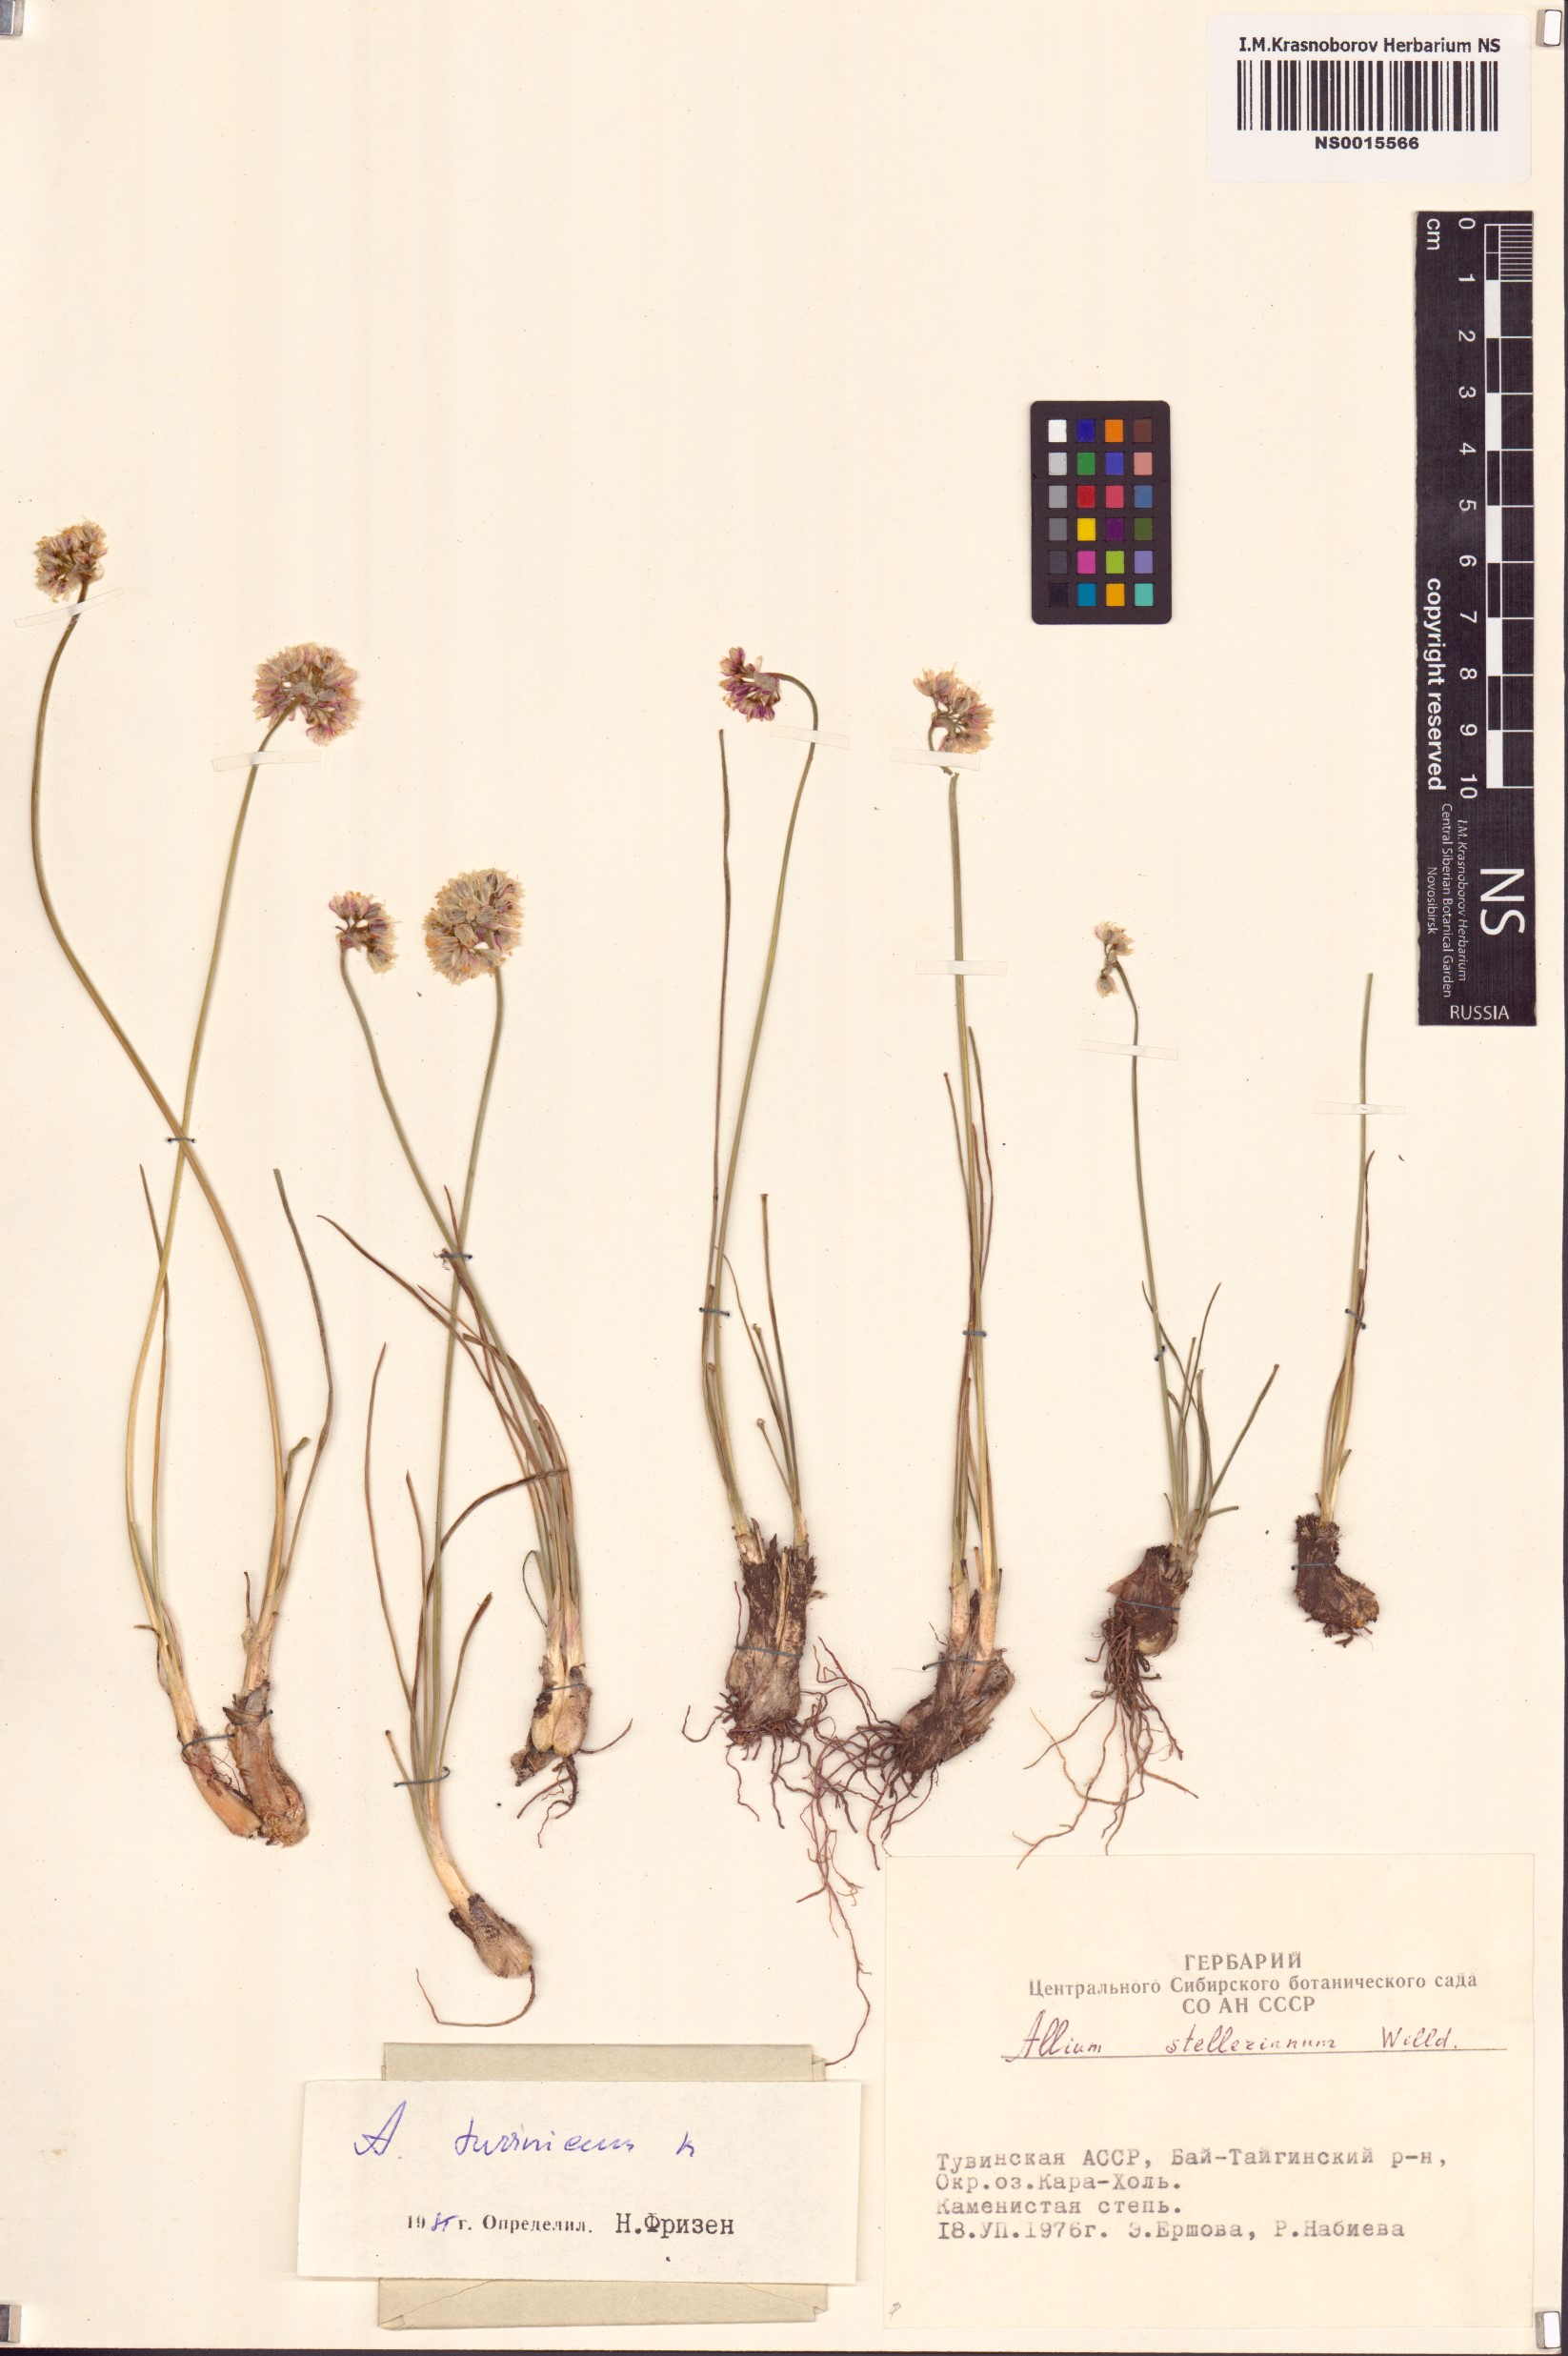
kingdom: Plantae
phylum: Tracheophyta
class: Liliopsida
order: Asparagales
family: Amaryllidaceae
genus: Allium
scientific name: Allium tuvinicum
